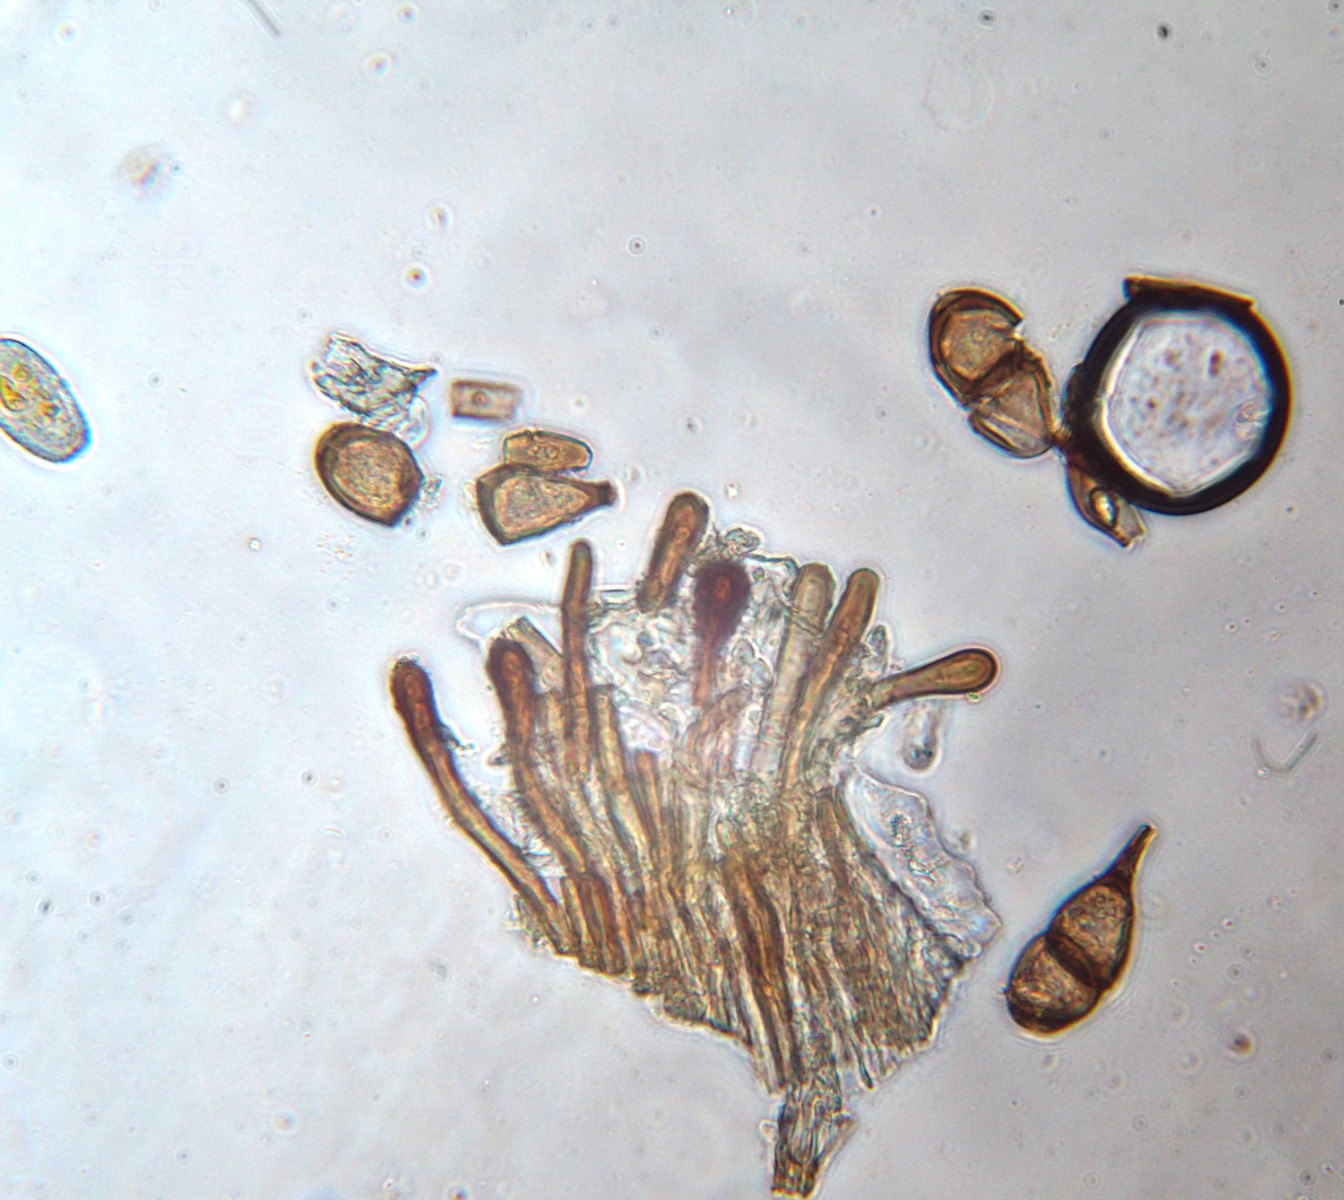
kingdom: Fungi
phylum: Basidiomycota
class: Pucciniomycetes
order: Pucciniales
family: Pucciniaceae
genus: Peristemma
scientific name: Peristemma pseudosphaeria
